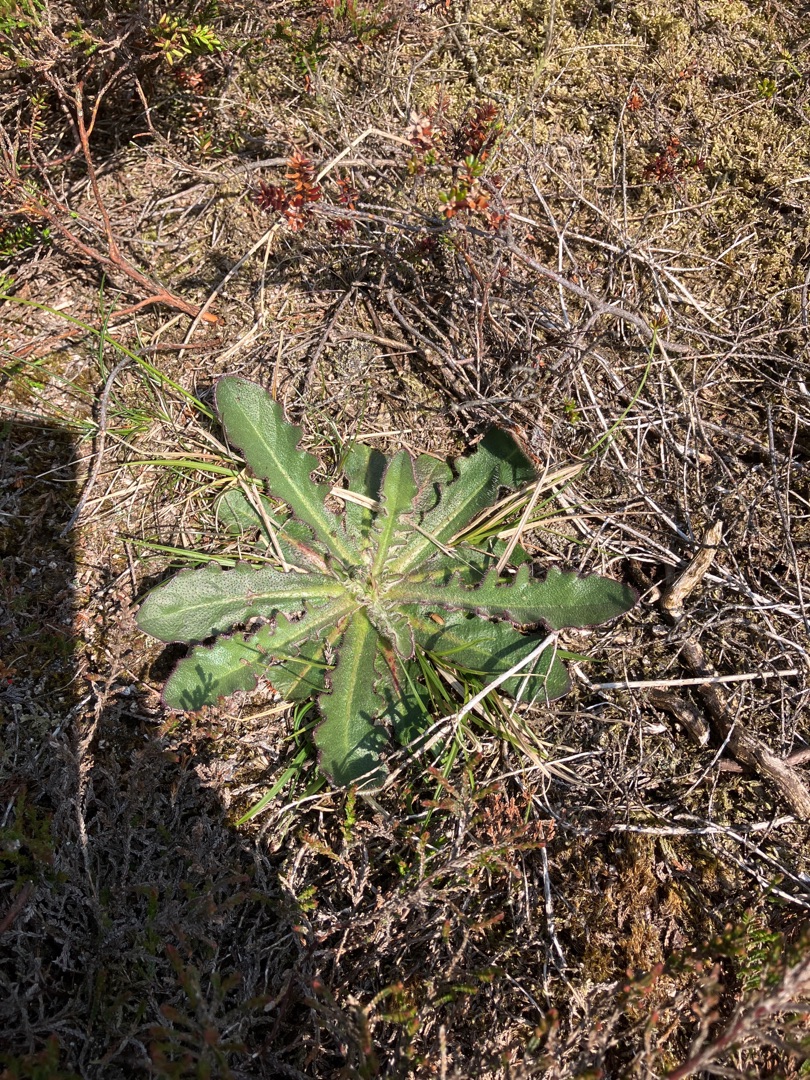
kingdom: Plantae
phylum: Tracheophyta
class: Magnoliopsida
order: Asterales
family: Asteraceae
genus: Hypochaeris
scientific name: Hypochaeris radicata
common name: Almindelig kongepen
